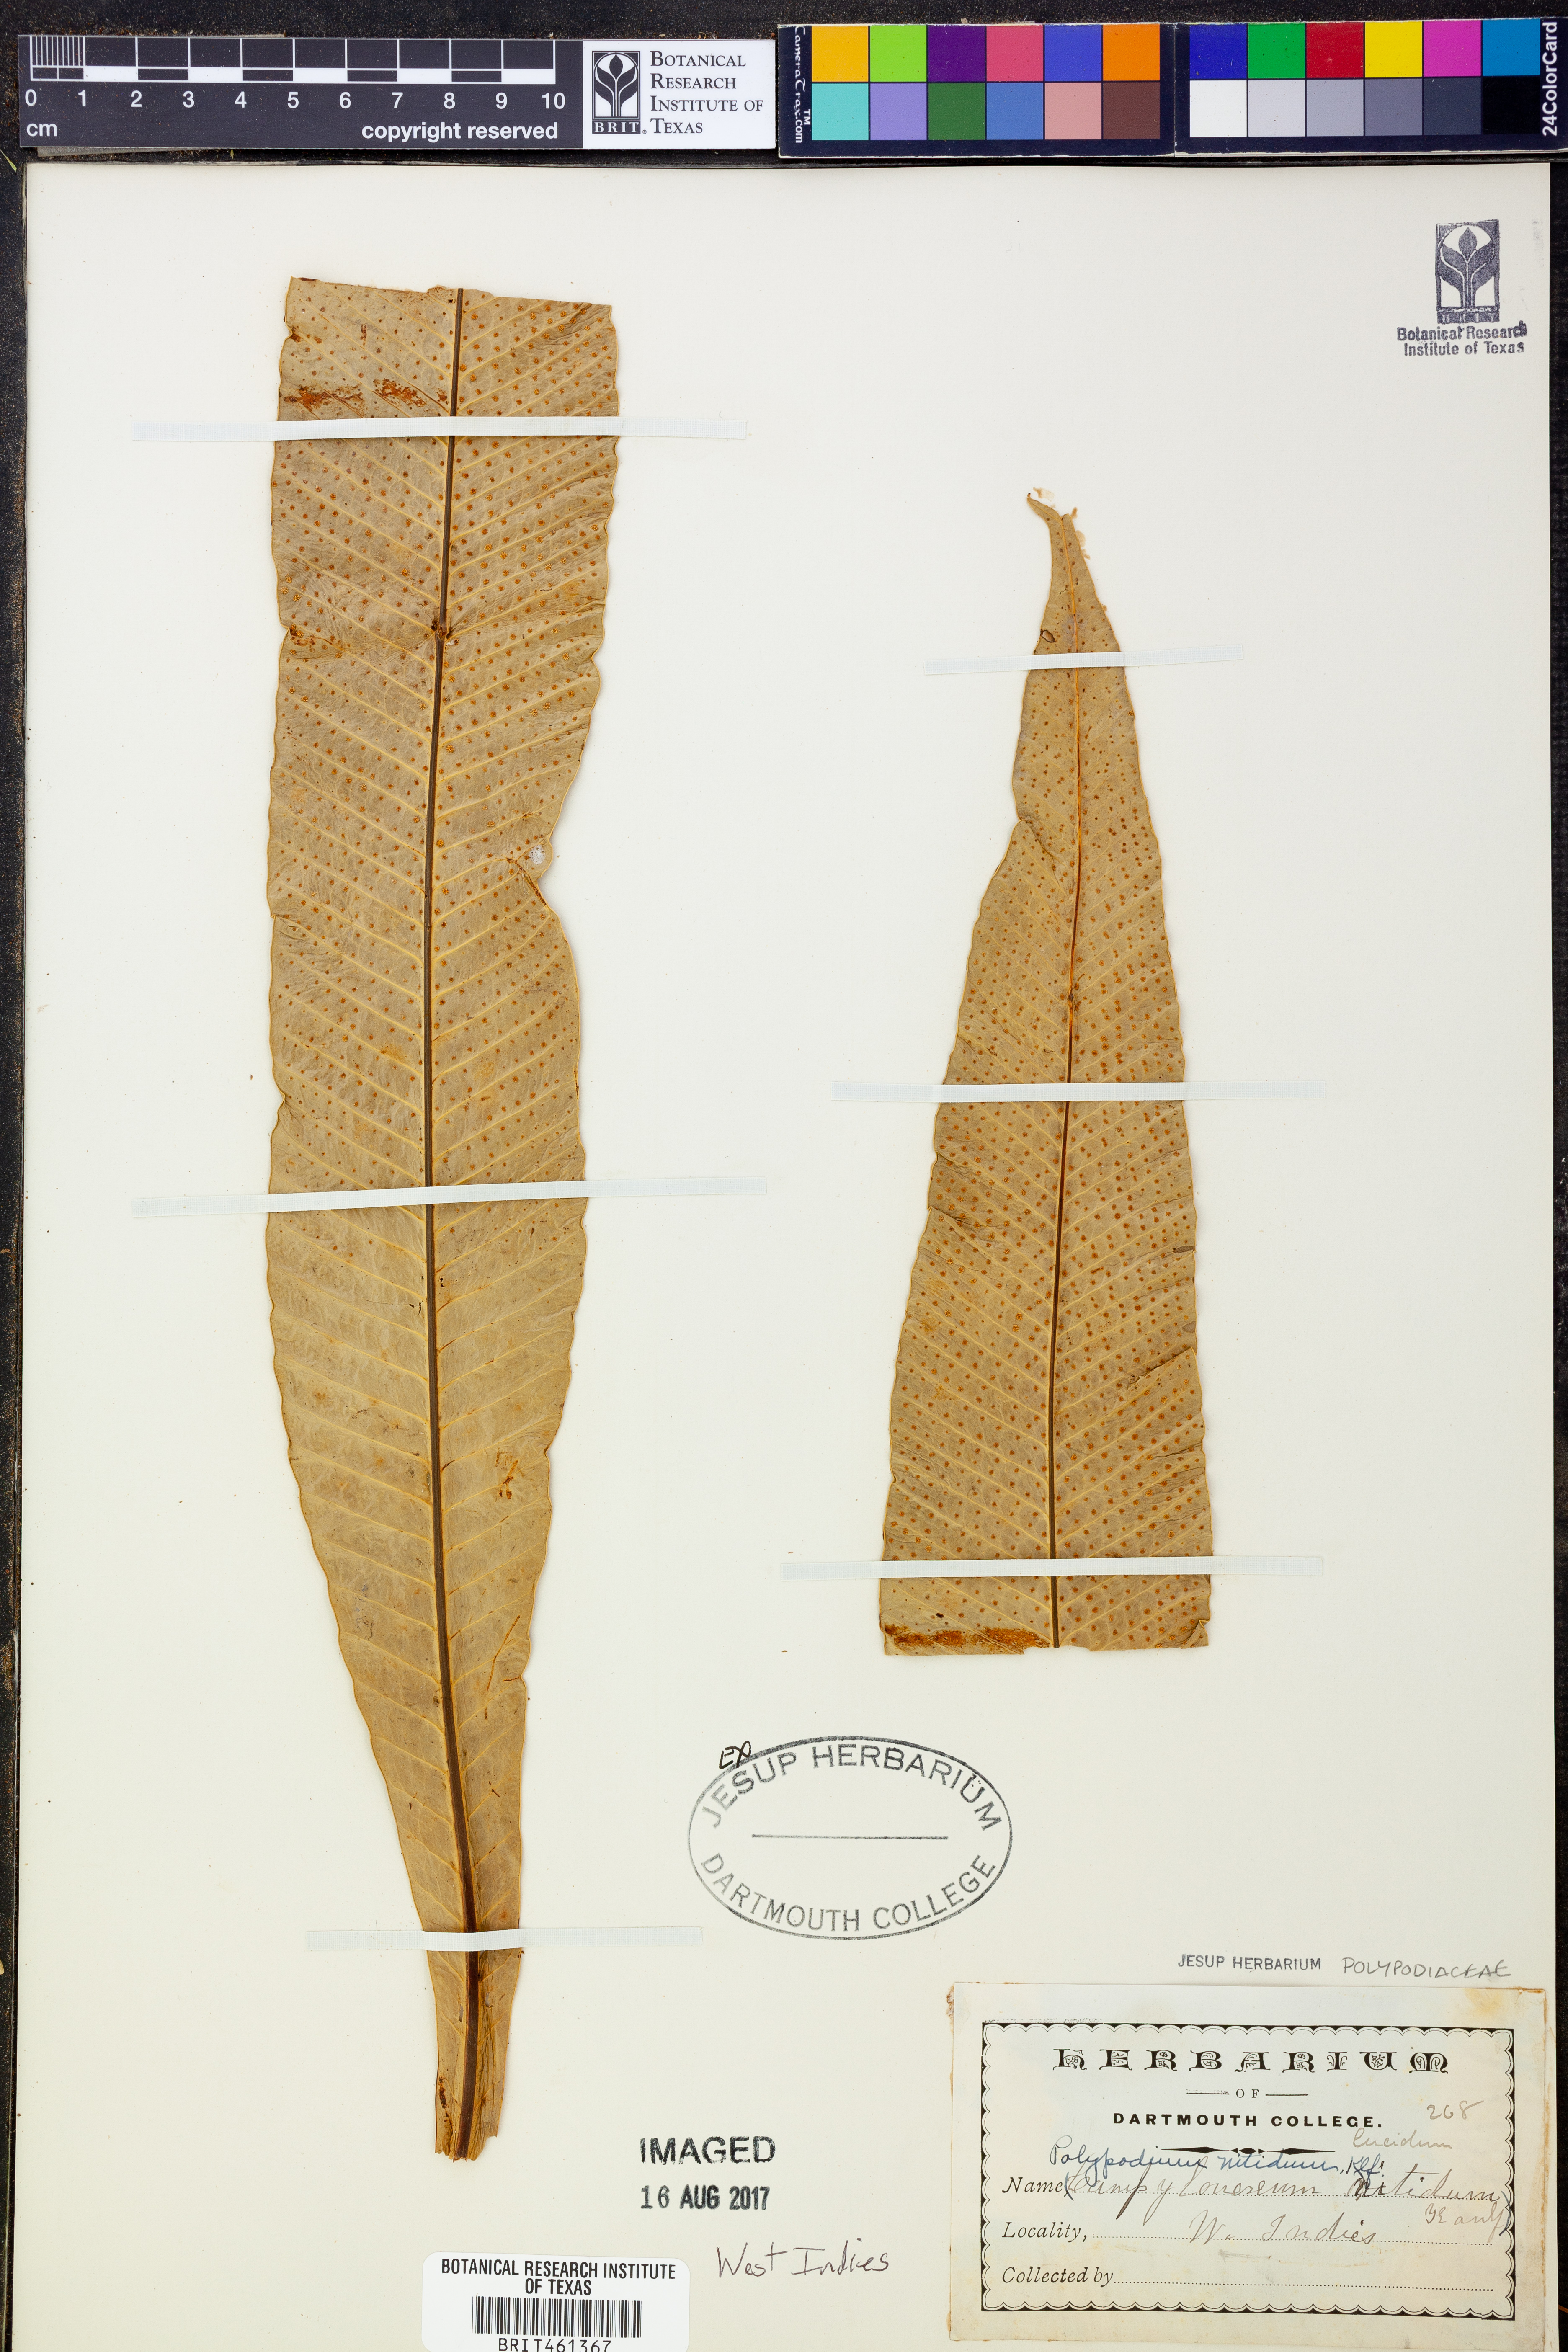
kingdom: Plantae
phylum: Tracheophyta
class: Polypodiopsida
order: Polypodiales
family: Polypodiaceae
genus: Campyloneurum
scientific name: Campyloneurum nitidum
